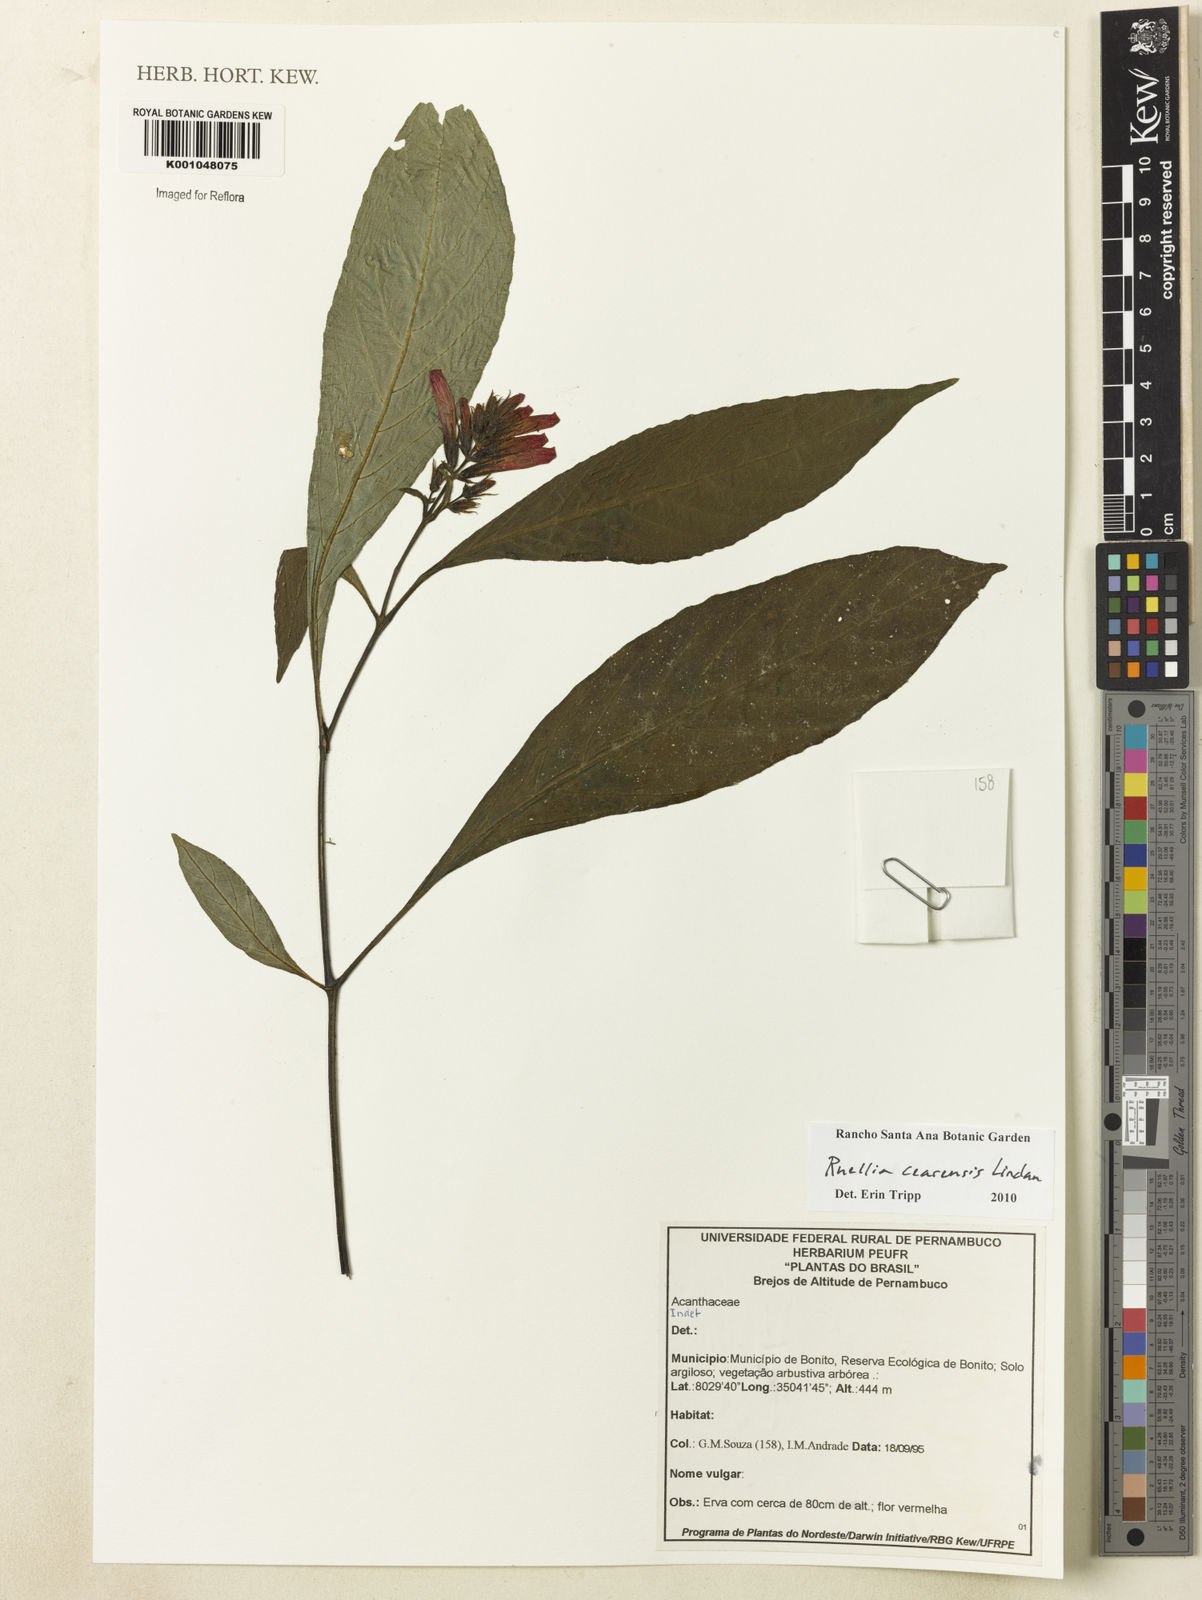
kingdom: Plantae
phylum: Tracheophyta
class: Magnoliopsida
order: Lamiales
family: Acanthaceae
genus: Ruellia
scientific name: Ruellia cearensis
